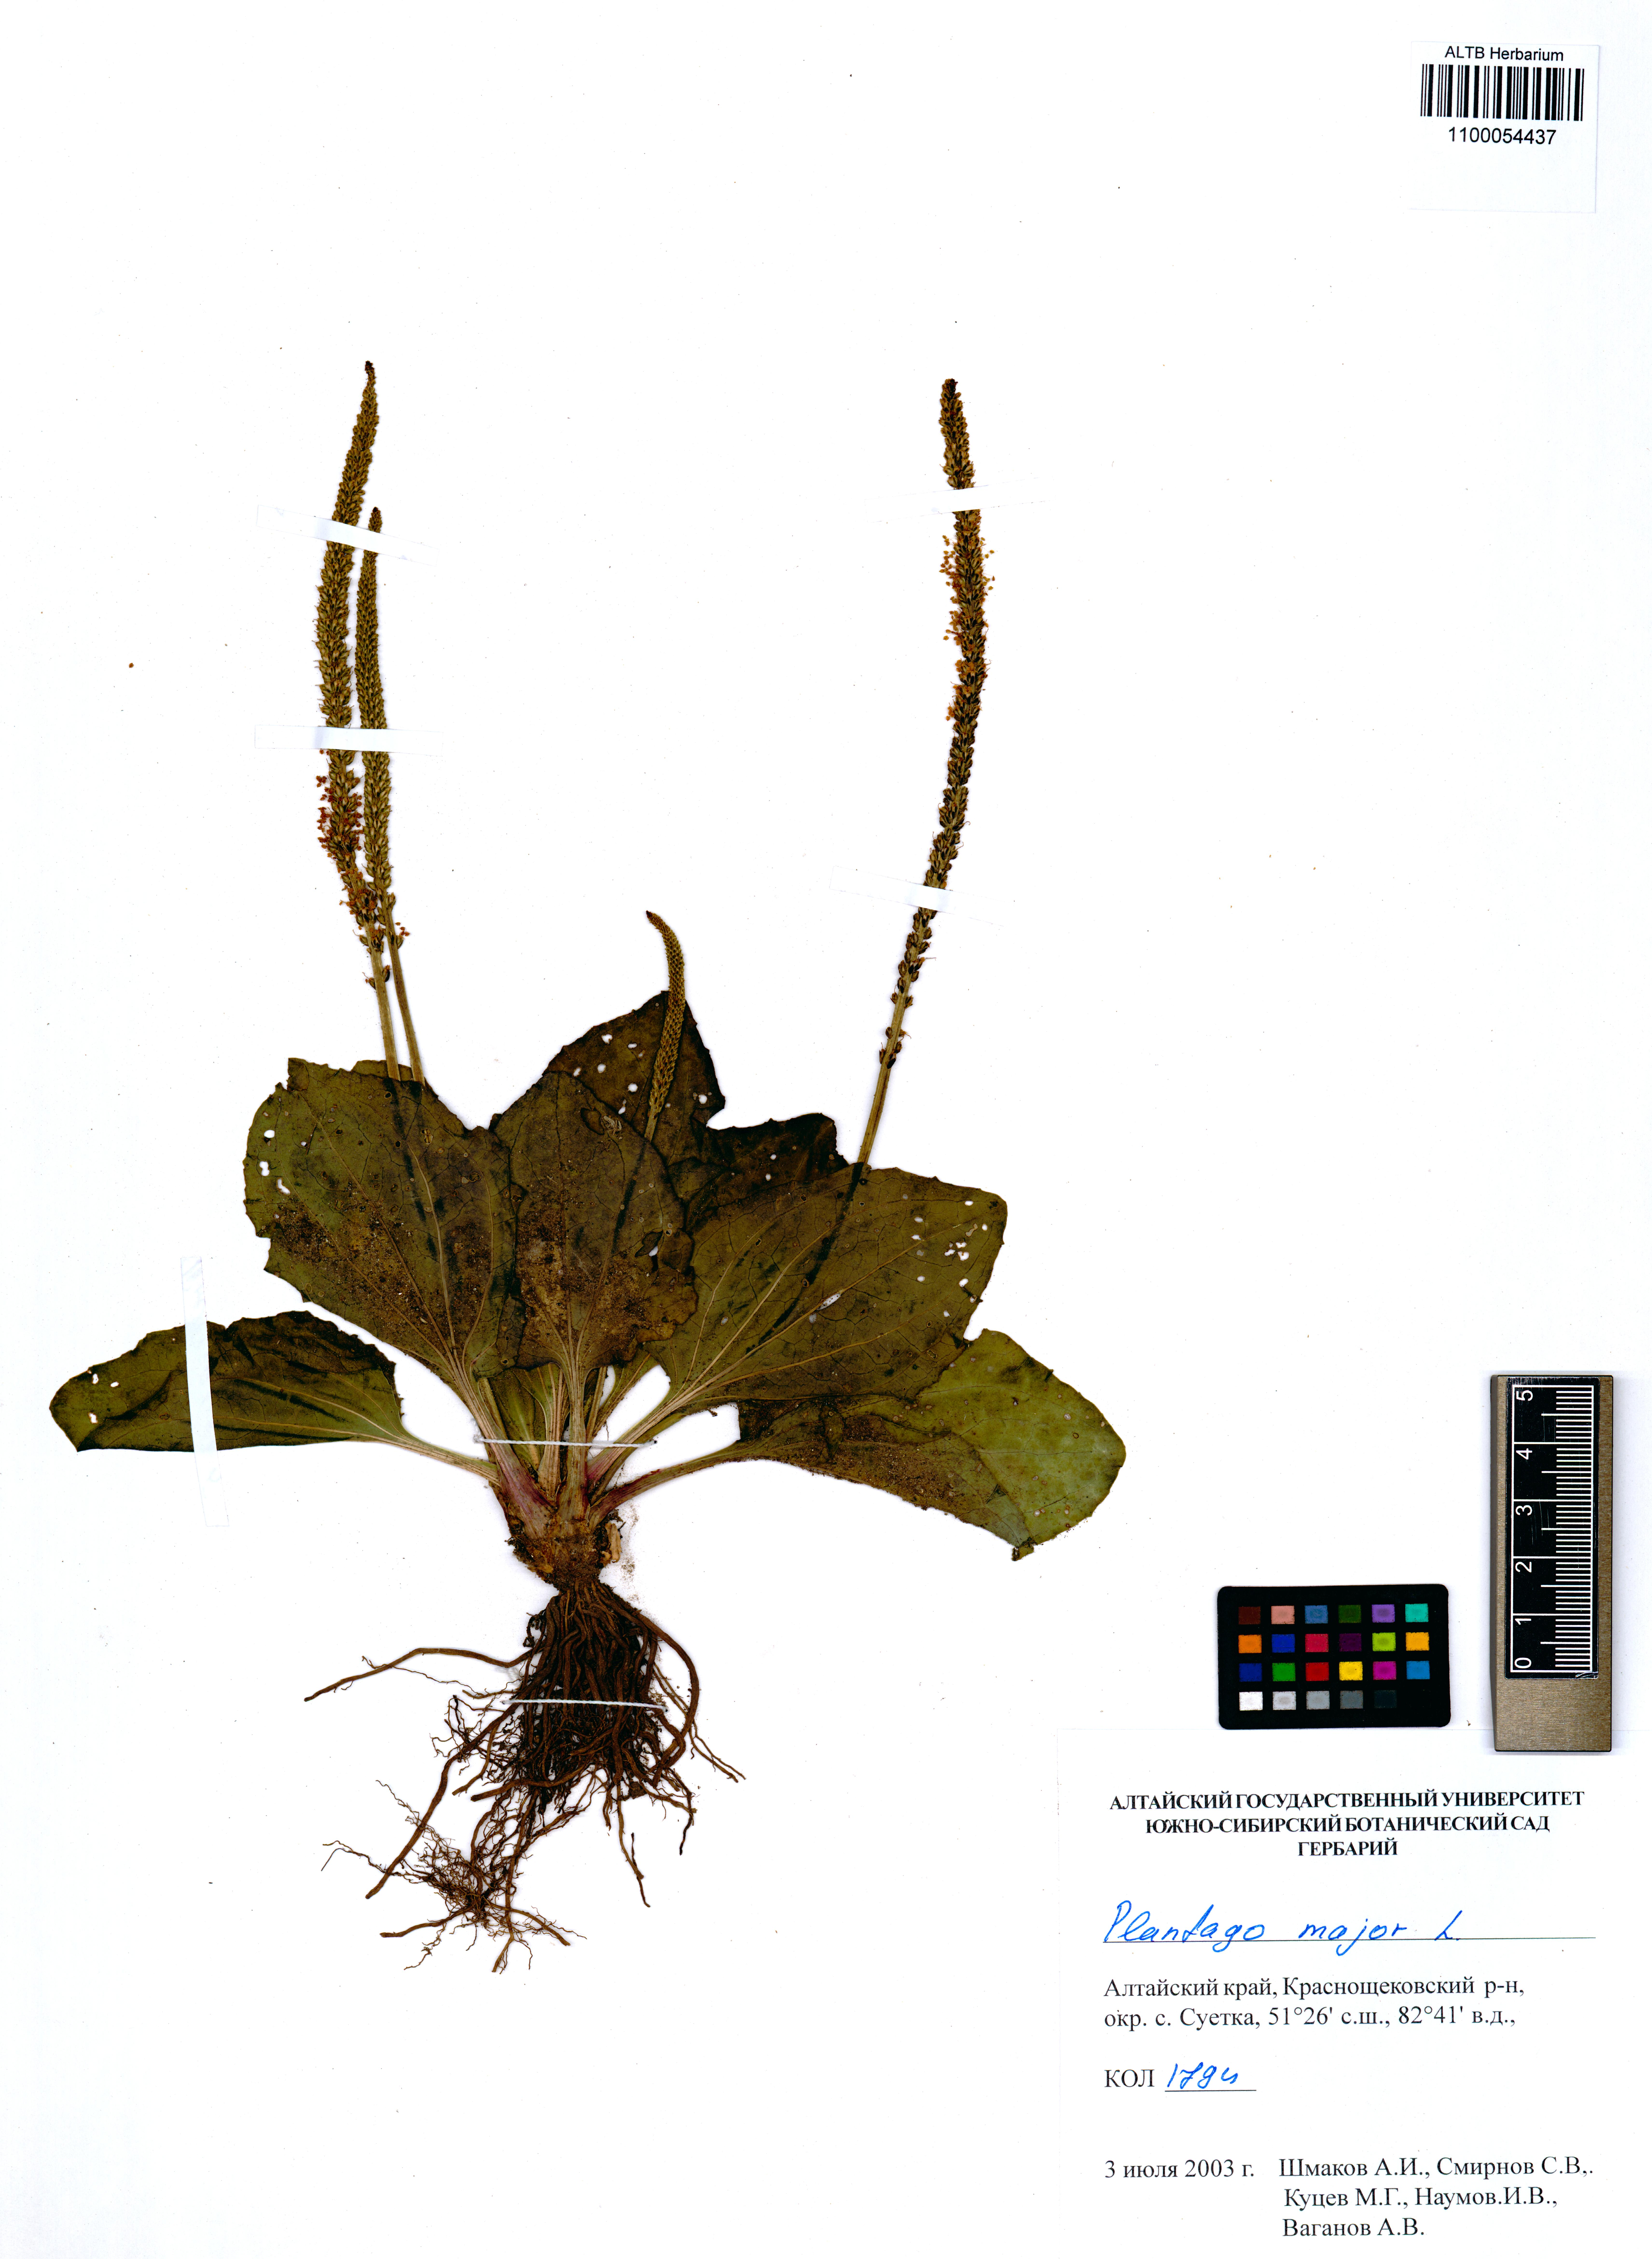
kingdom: Plantae
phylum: Tracheophyta
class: Magnoliopsida
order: Lamiales
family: Plantaginaceae
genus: Plantago
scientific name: Plantago major
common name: Common plantain
